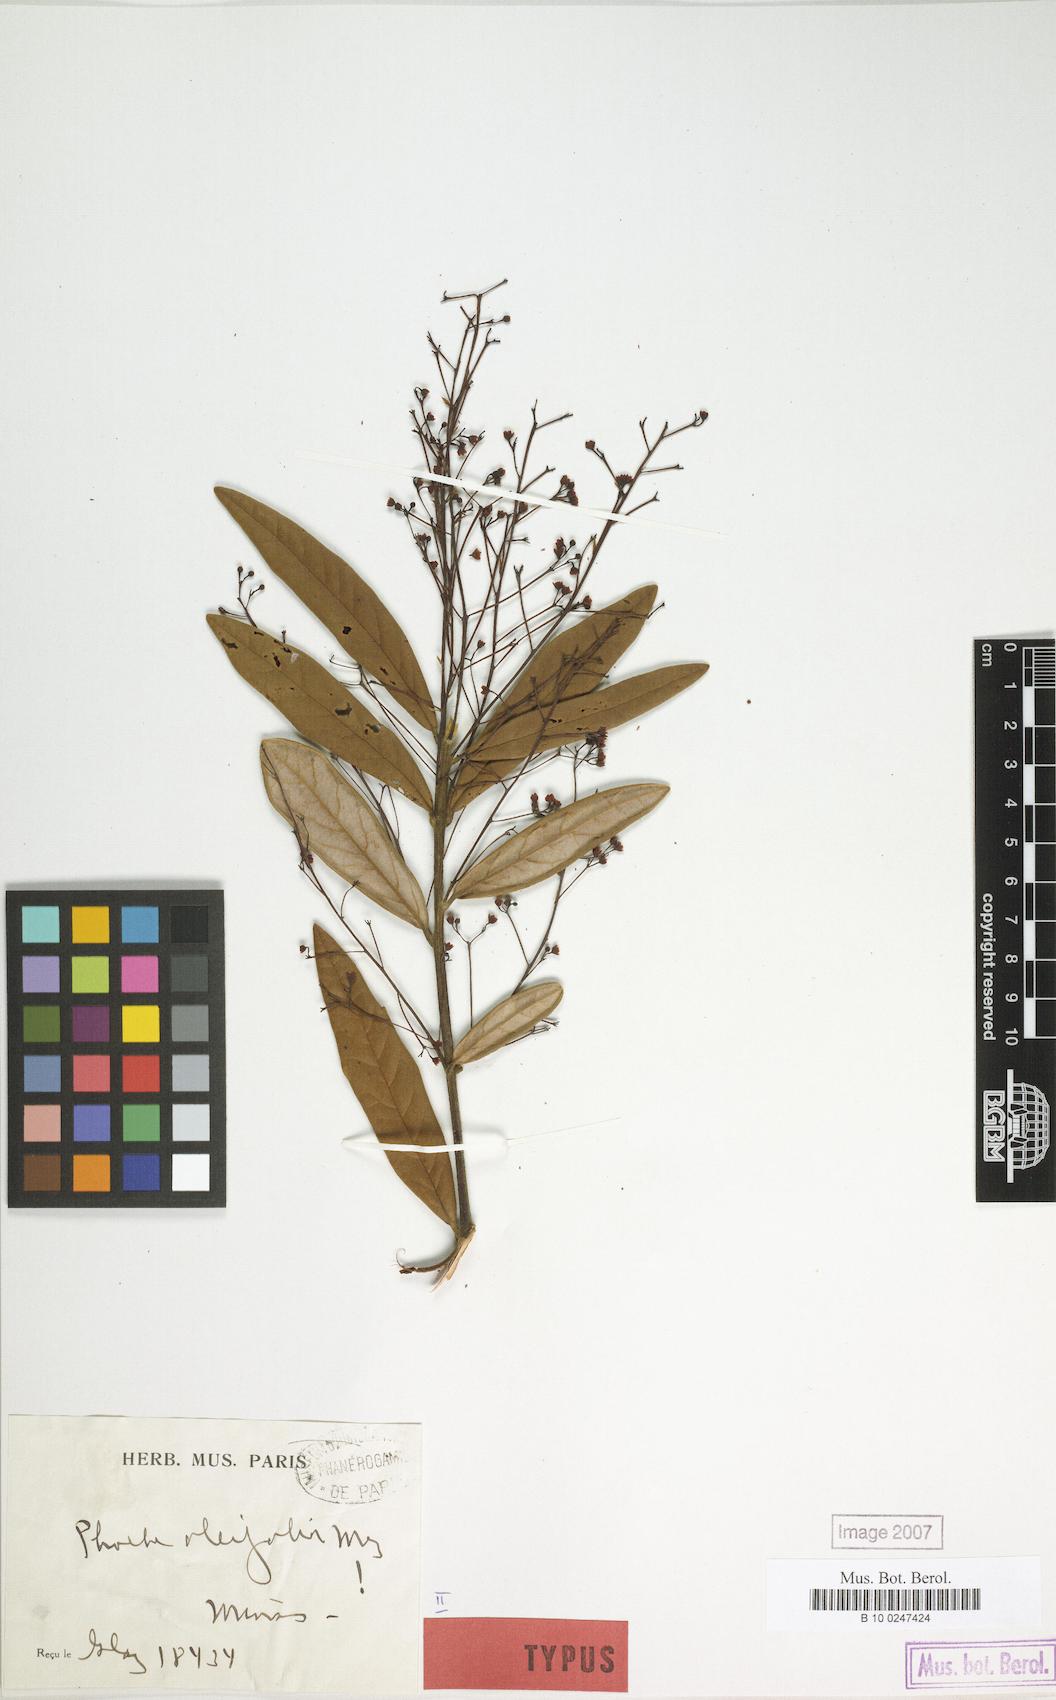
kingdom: Plantae
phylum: Tracheophyta
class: Magnoliopsida
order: Laurales
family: Lauraceae
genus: Aiouea
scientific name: Aiouea erythropus
